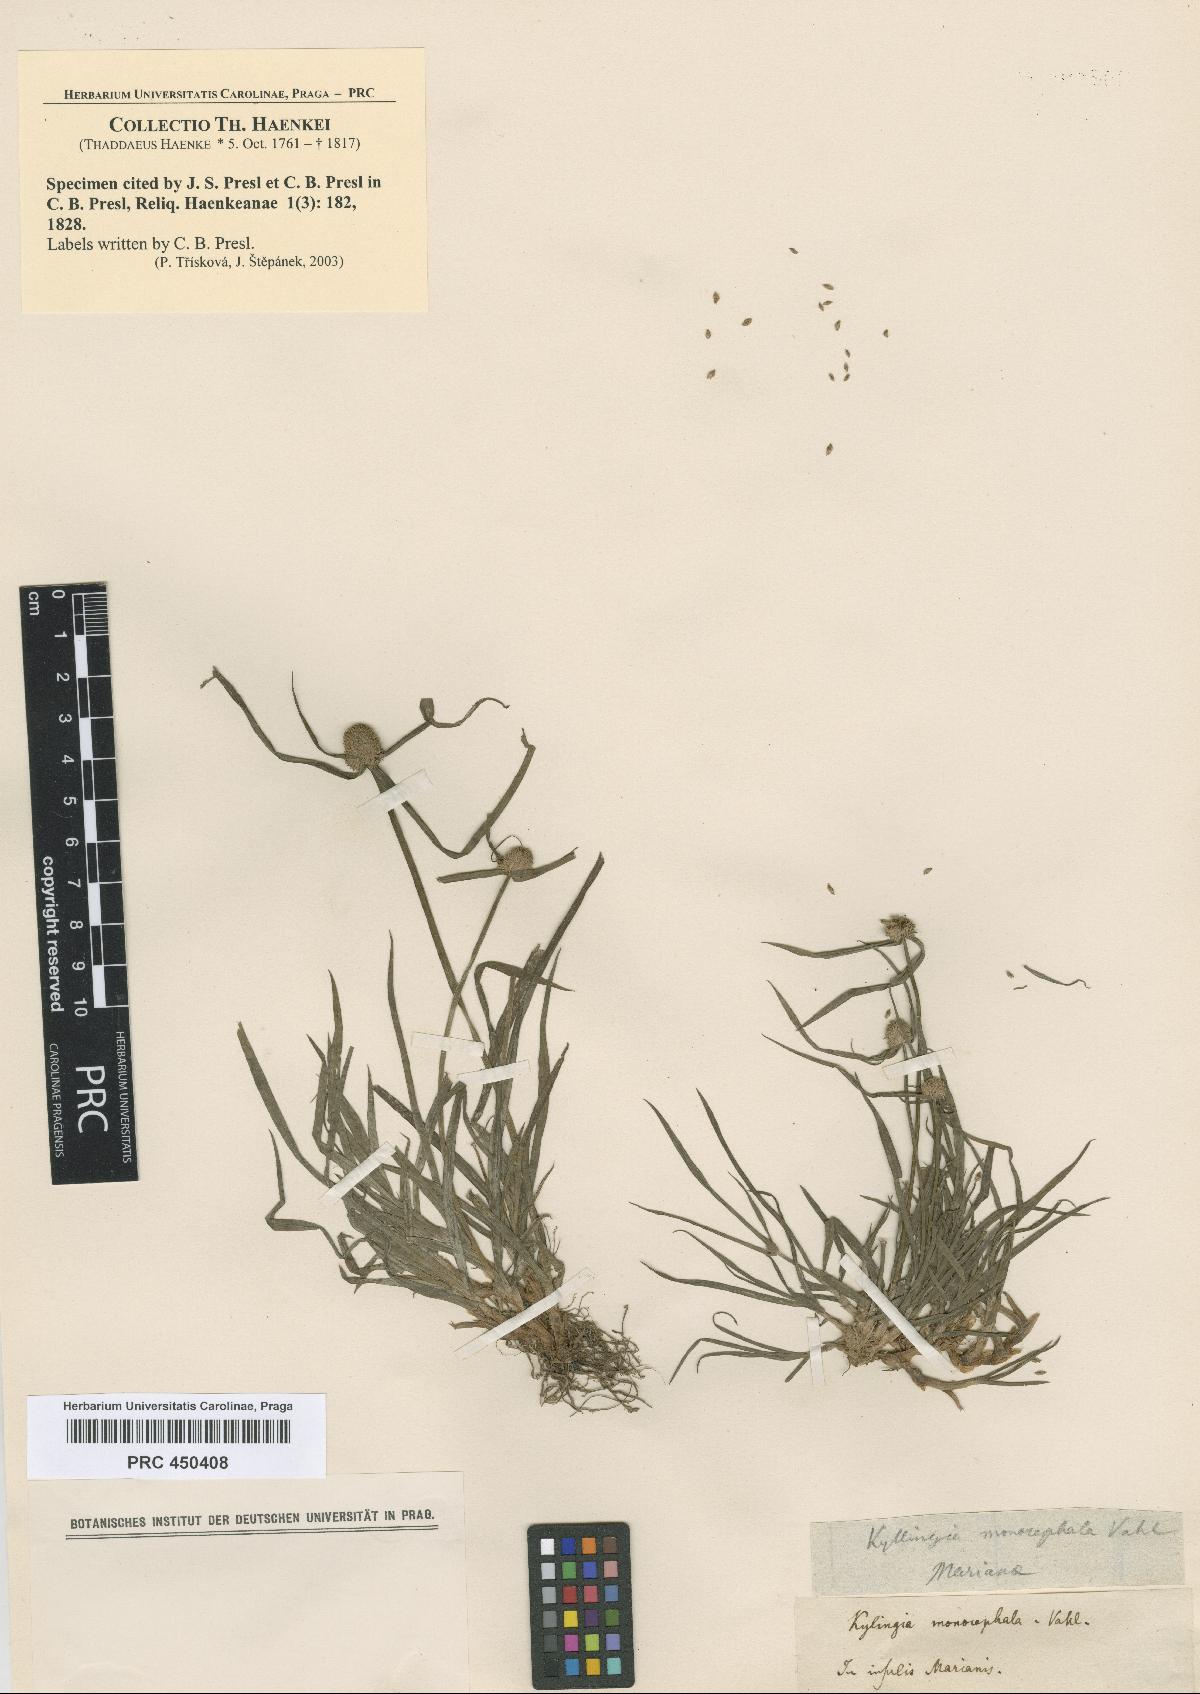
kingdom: Plantae
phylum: Tracheophyta
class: Liliopsida
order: Poales
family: Cyperaceae
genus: Cyperus
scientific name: Cyperus
